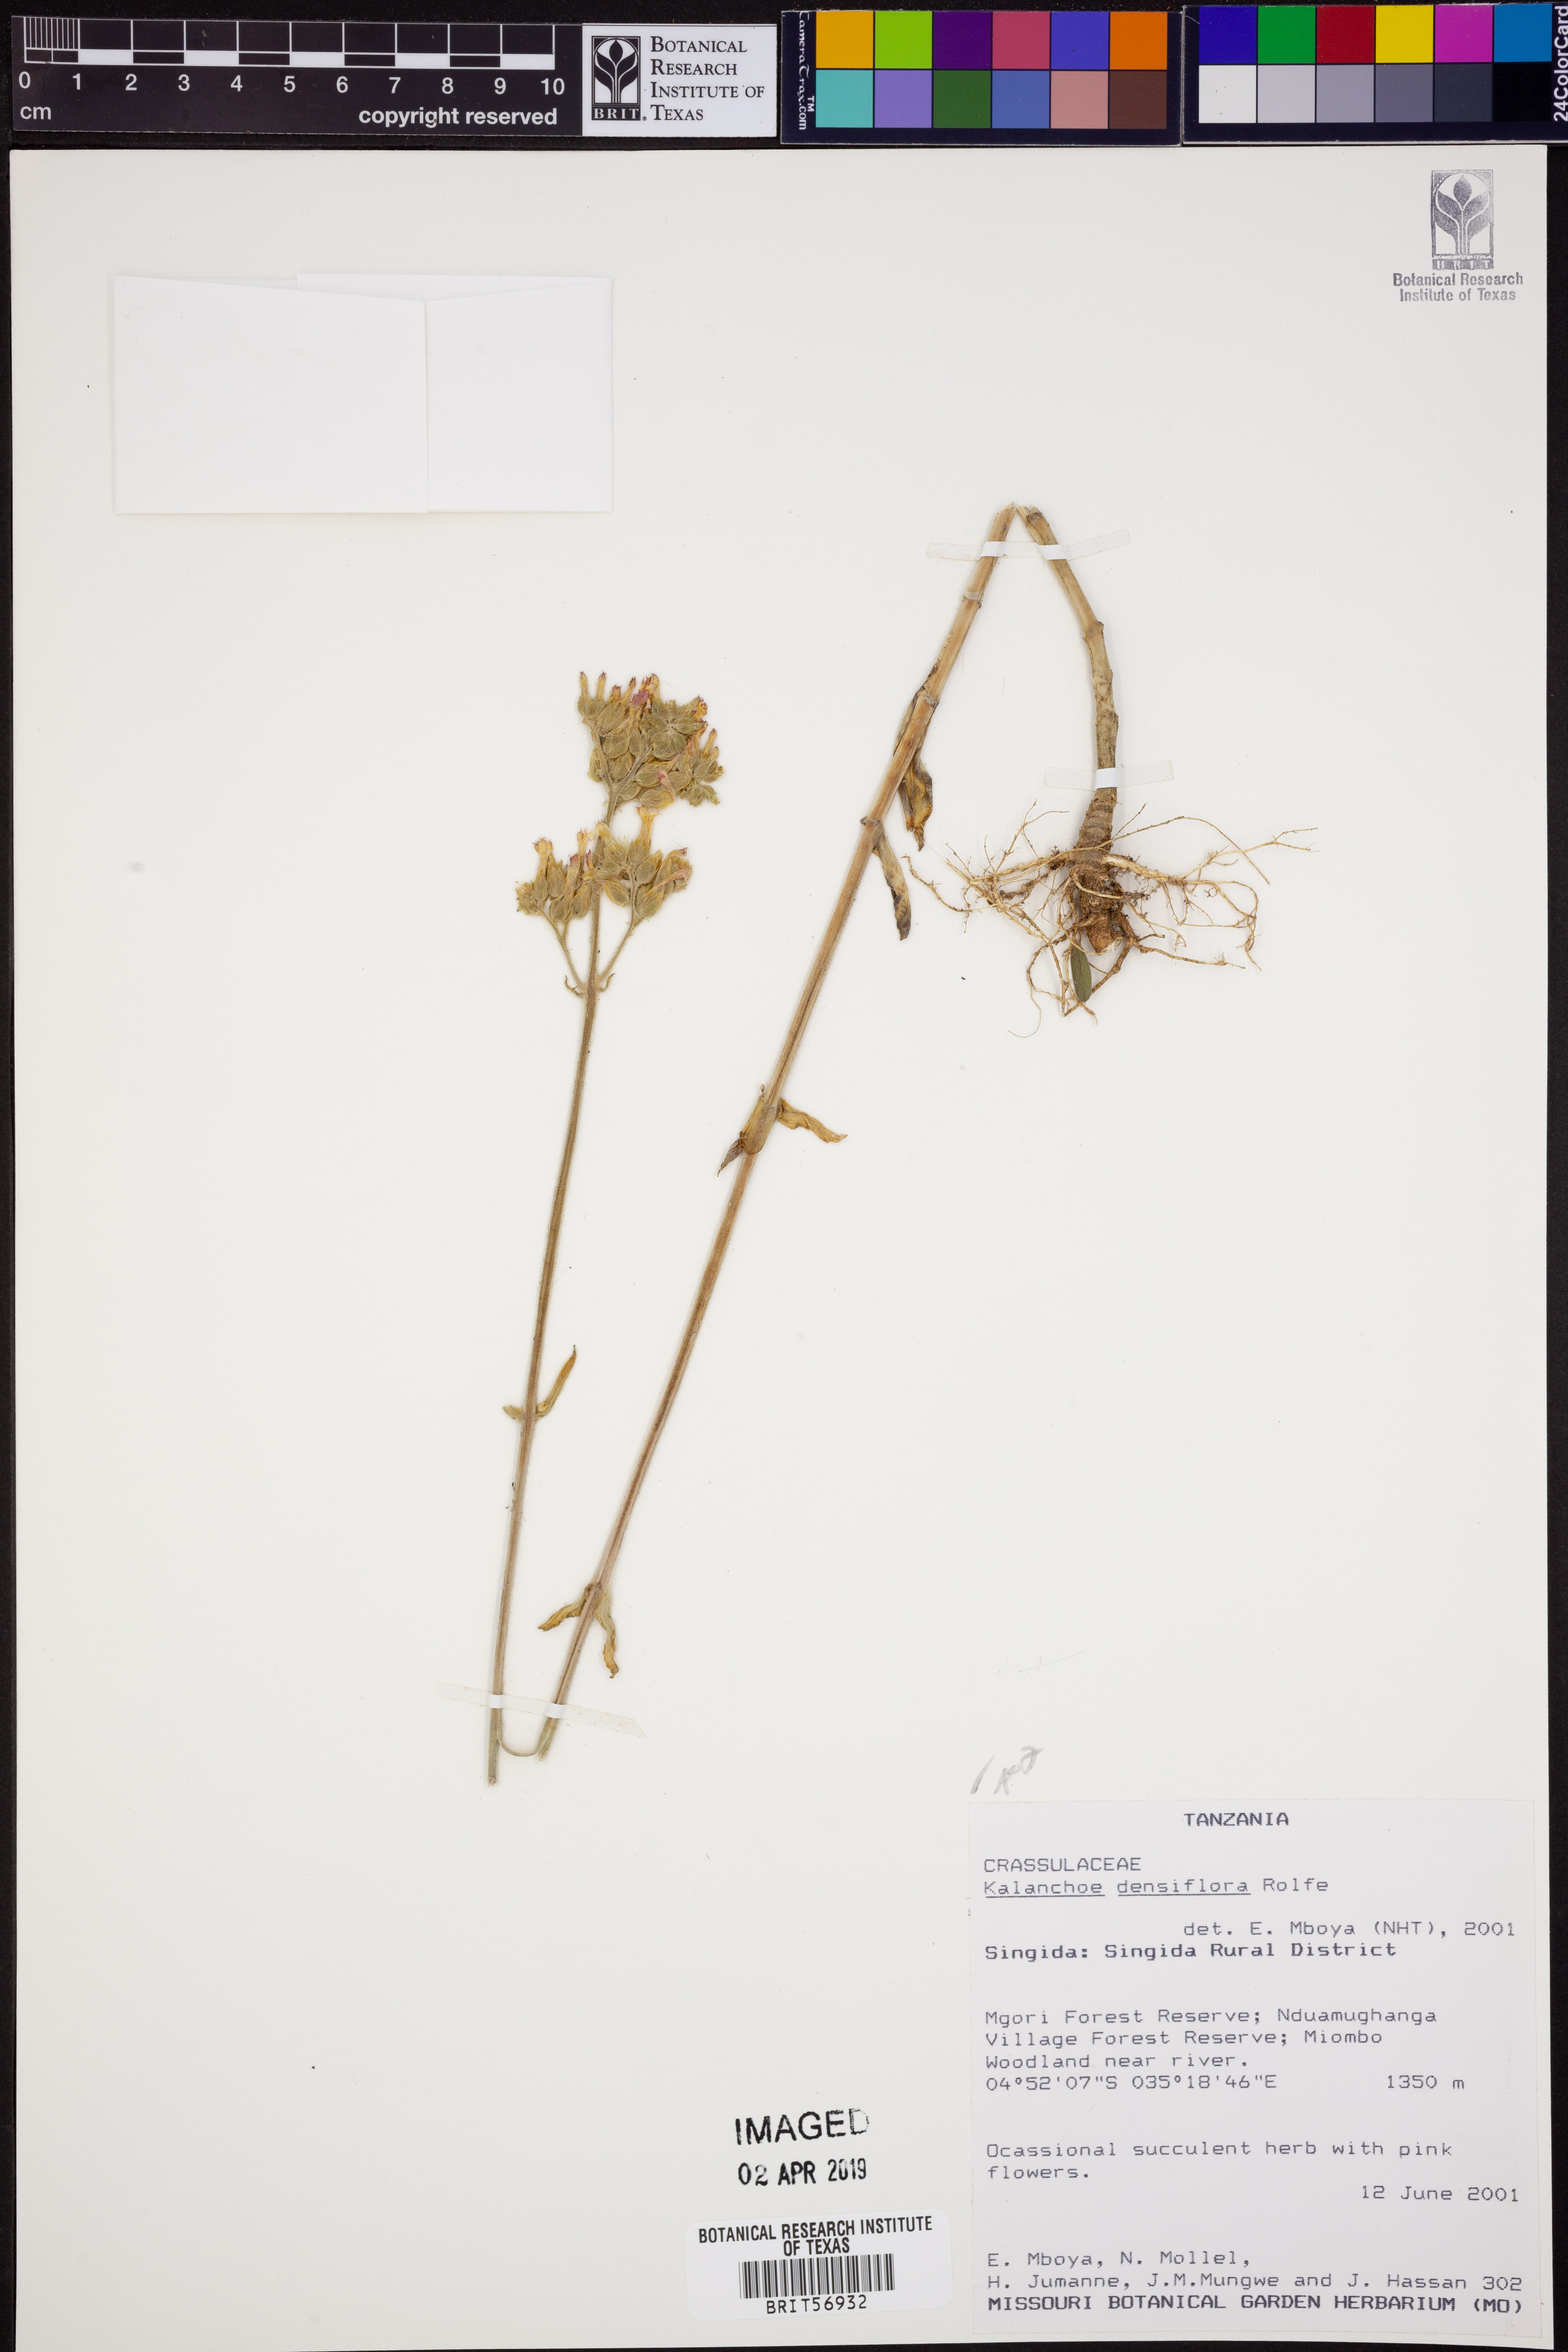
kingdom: Plantae
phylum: Tracheophyta
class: Magnoliopsida
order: Saxifragales
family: Crassulaceae
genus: Kalanchoe
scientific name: Kalanchoe densiflora
